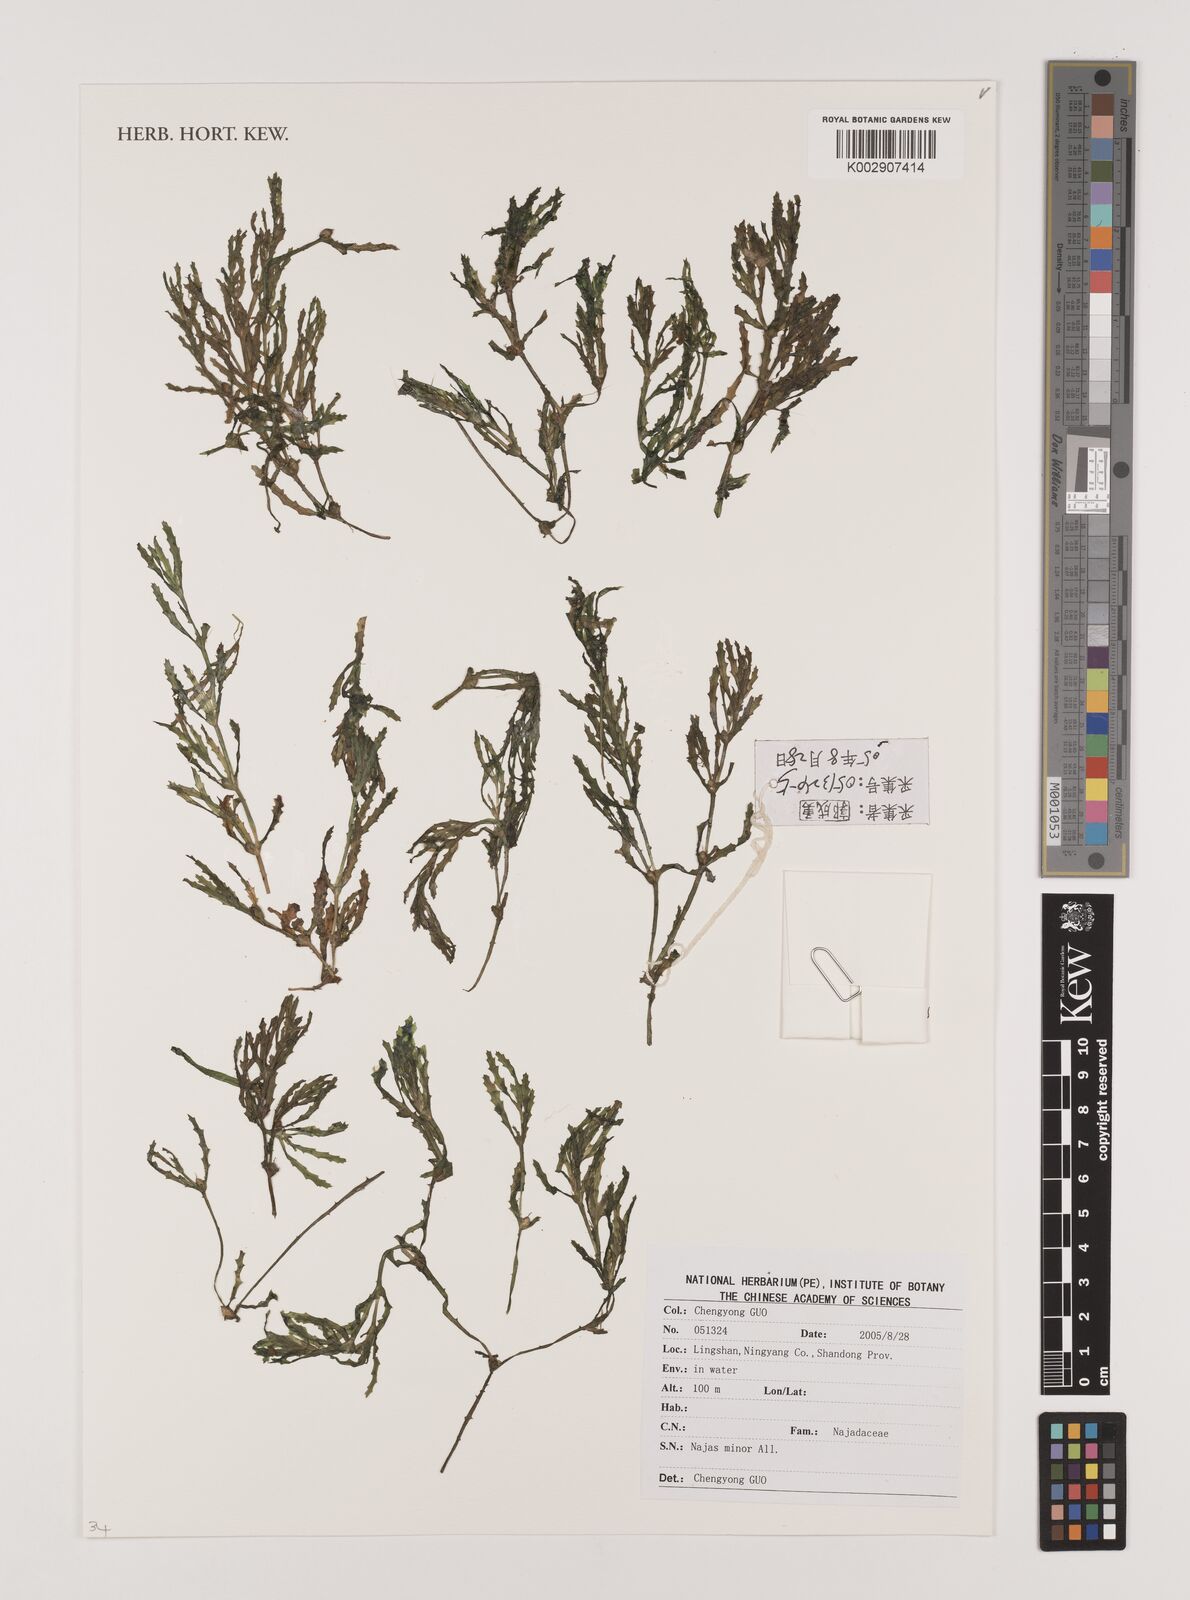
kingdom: Plantae
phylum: Tracheophyta
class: Liliopsida
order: Alismatales
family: Hydrocharitaceae
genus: Najas
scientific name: Najas minor
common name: Brittle naiad
